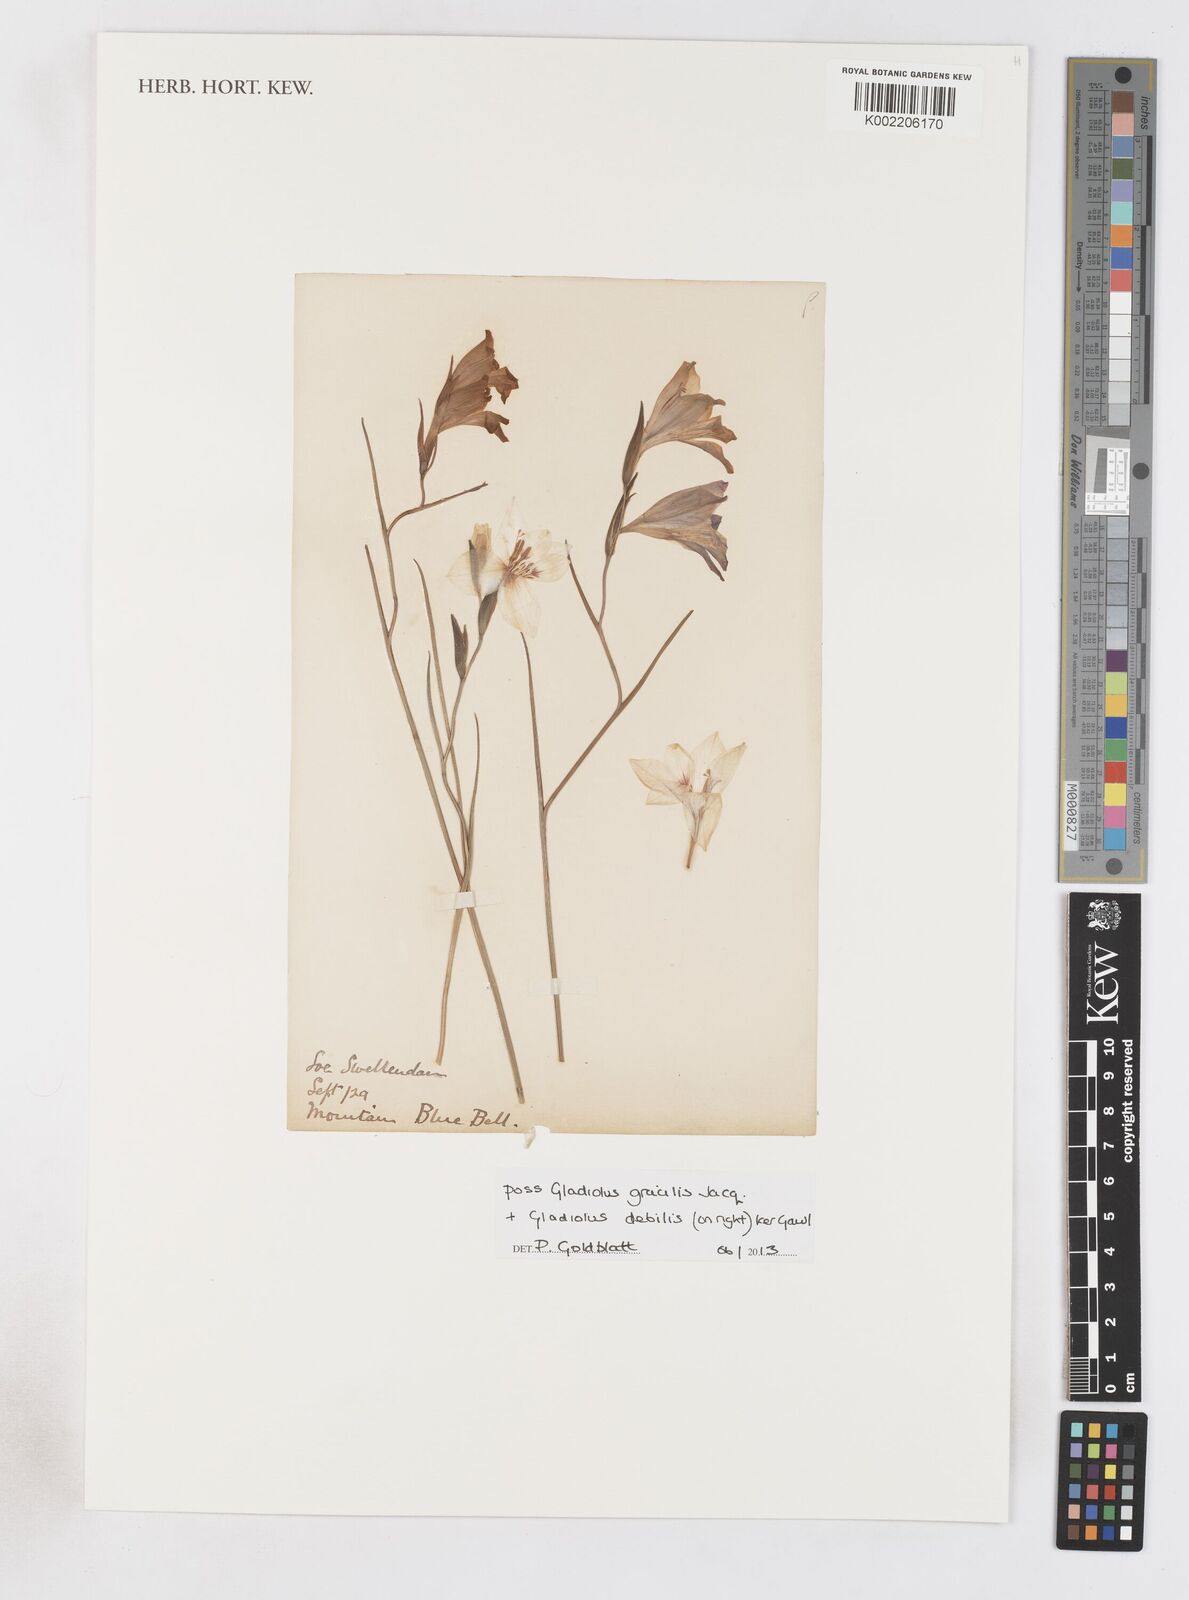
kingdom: Plantae
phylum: Tracheophyta
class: Liliopsida
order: Asparagales
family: Iridaceae
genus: Gladiolus
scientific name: Gladiolus gracilis
